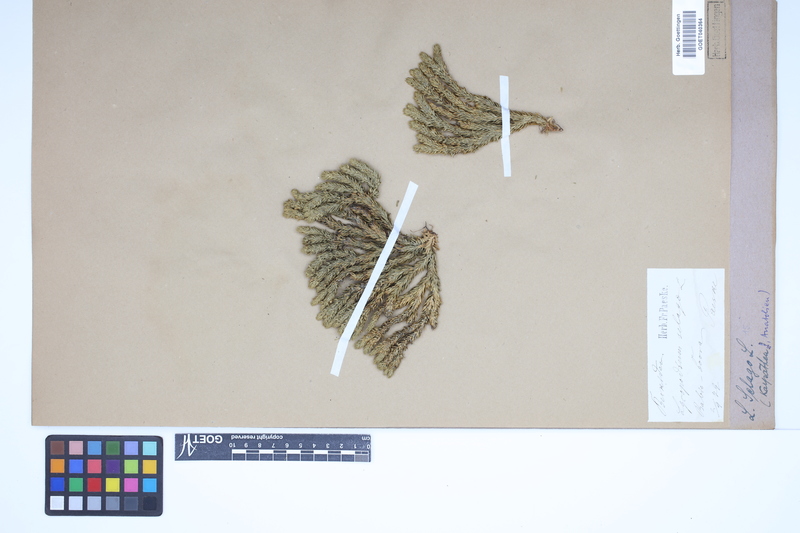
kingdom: Plantae
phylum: Tracheophyta
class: Lycopodiopsida
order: Lycopodiales
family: Lycopodiaceae
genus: Huperzia
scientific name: Huperzia selago
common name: Northern firmoss
